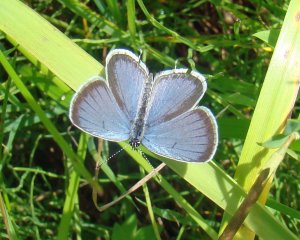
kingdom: Animalia
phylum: Arthropoda
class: Insecta
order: Lepidoptera
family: Lycaenidae
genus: Elkalyce
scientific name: Elkalyce comyntas
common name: Eastern Tailed-Blue
